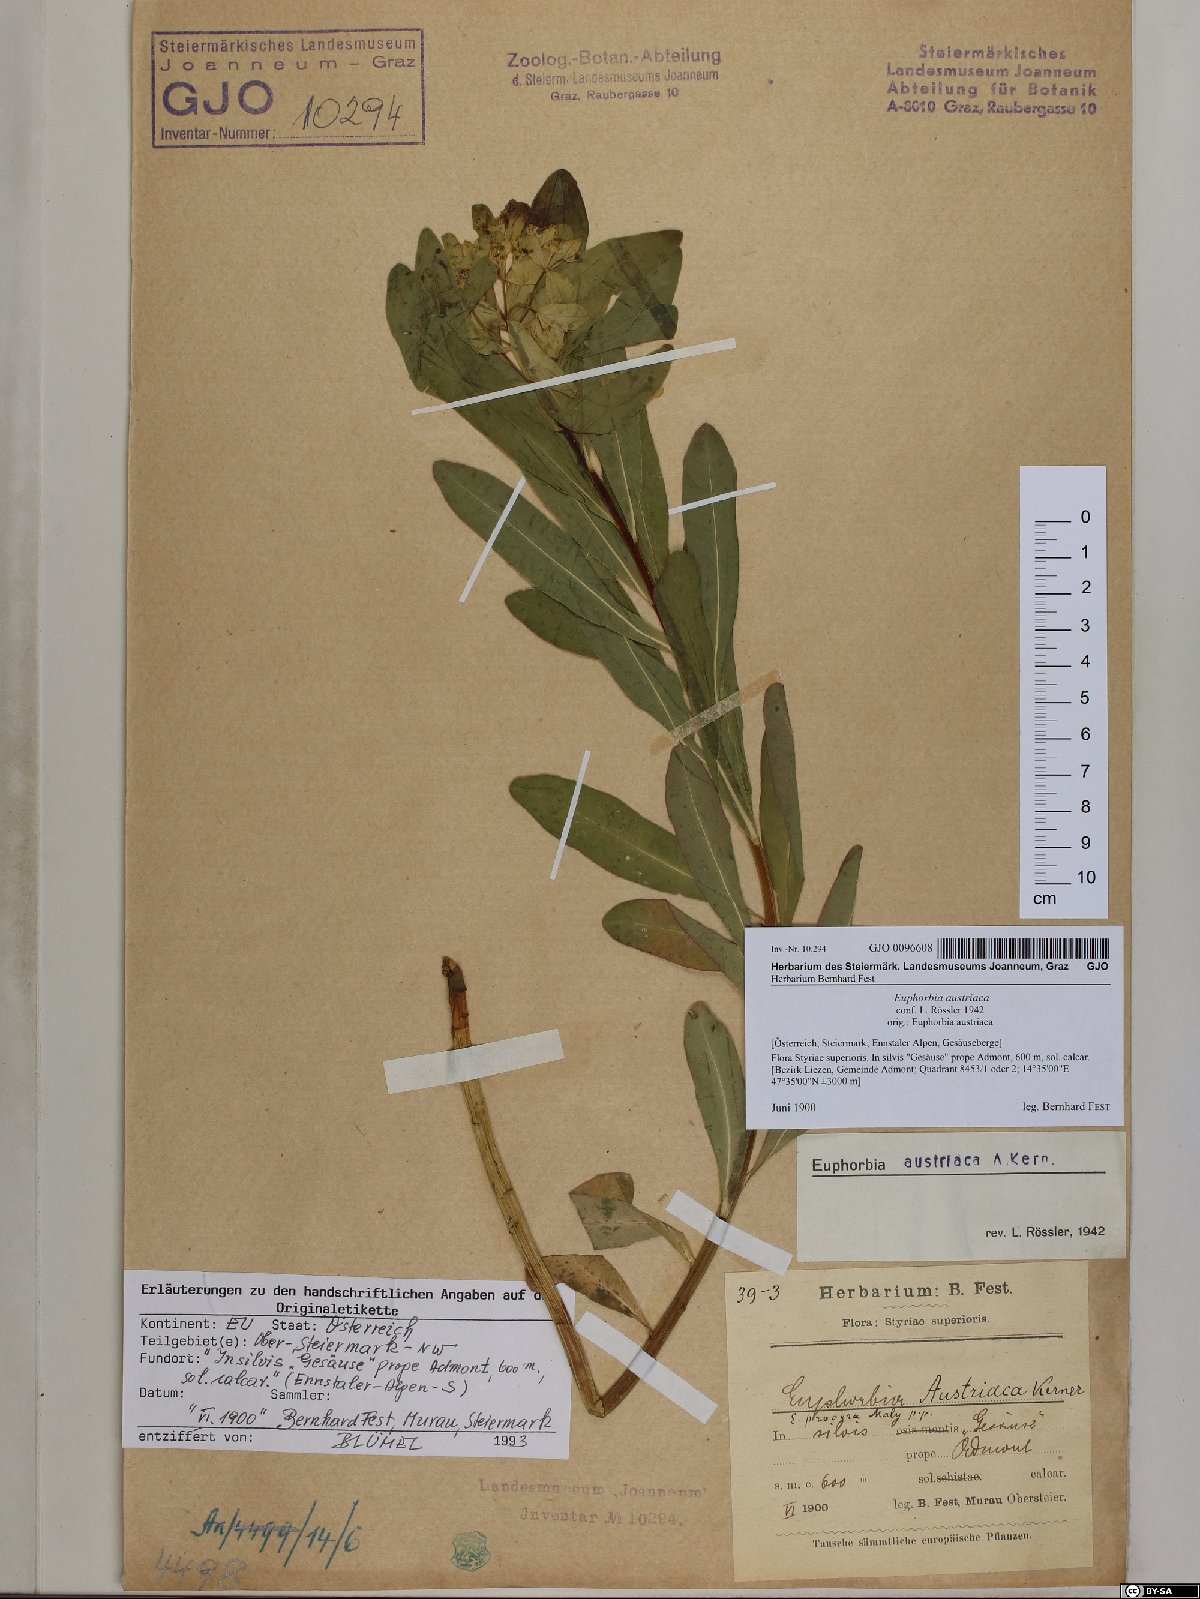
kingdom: Plantae
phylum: Tracheophyta
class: Magnoliopsida
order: Malpighiales
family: Euphorbiaceae
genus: Euphorbia
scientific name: Euphorbia austriaca
